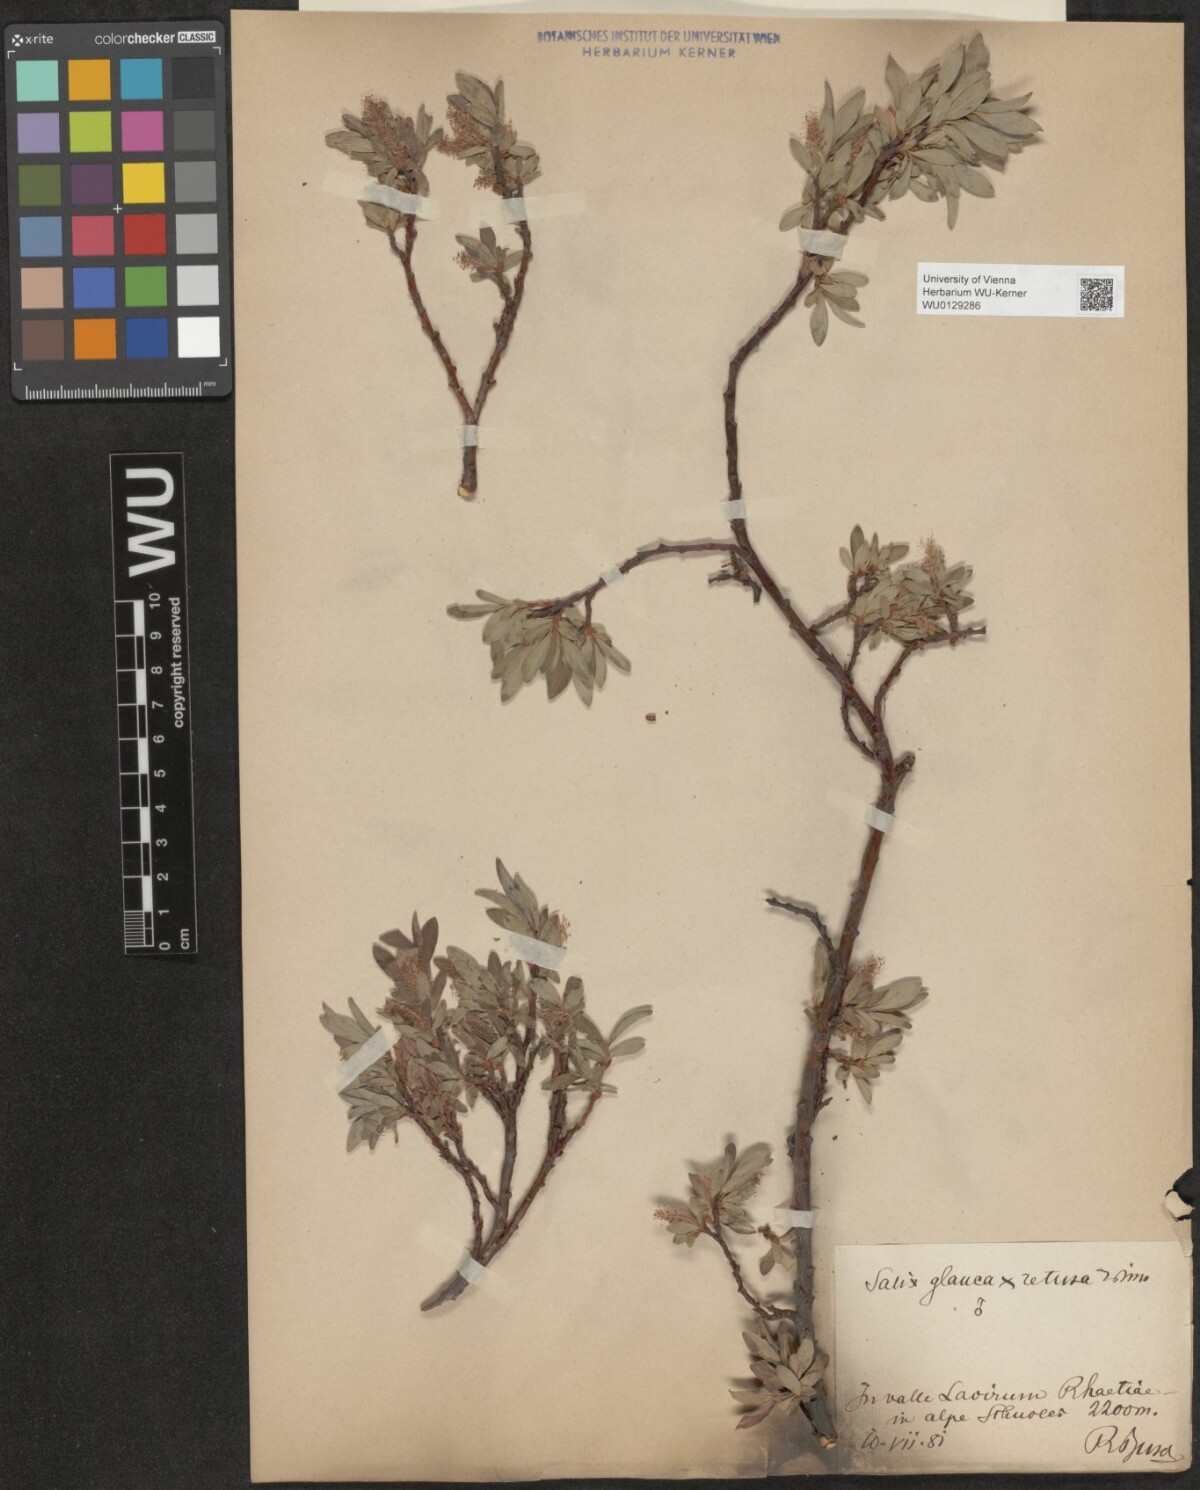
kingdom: Plantae
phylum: Tracheophyta
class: Magnoliopsida
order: Malpighiales
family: Salicaceae
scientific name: Salicaceae
